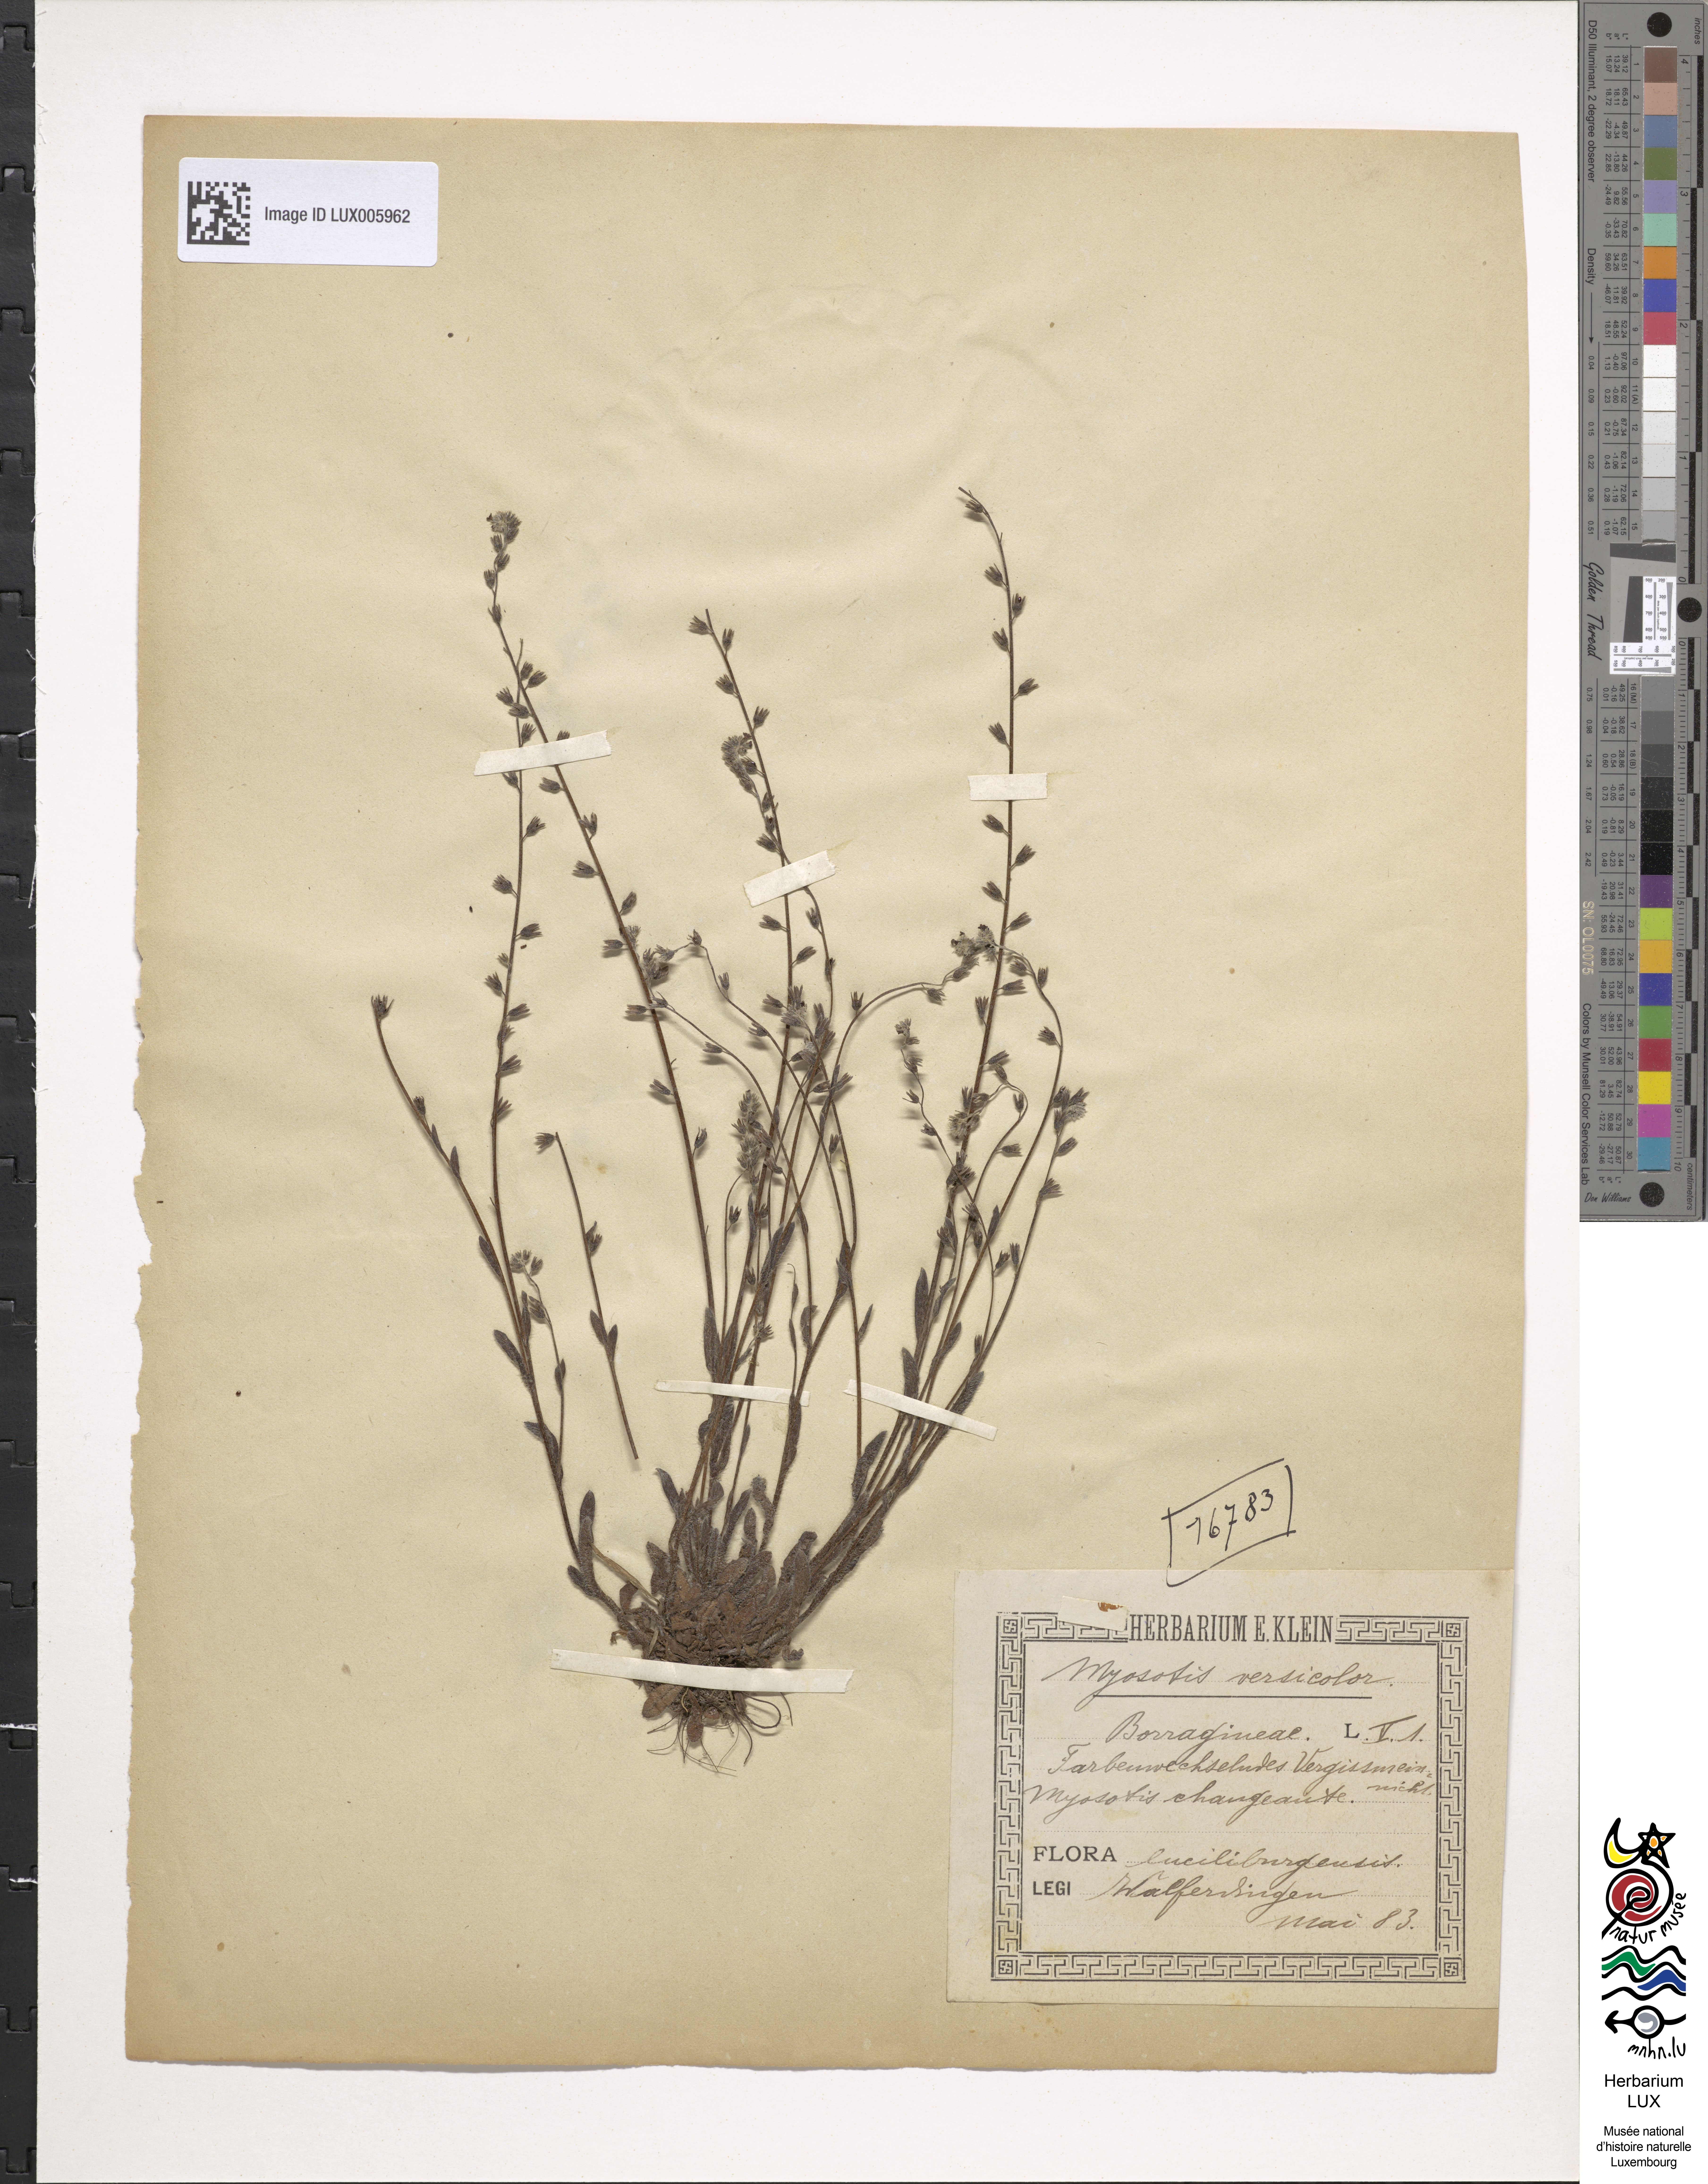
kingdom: Plantae
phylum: Tracheophyta
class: Magnoliopsida
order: Boraginales
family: Boraginaceae
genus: Myosotis
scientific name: Myosotis discolor
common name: Changing forget-me-not
